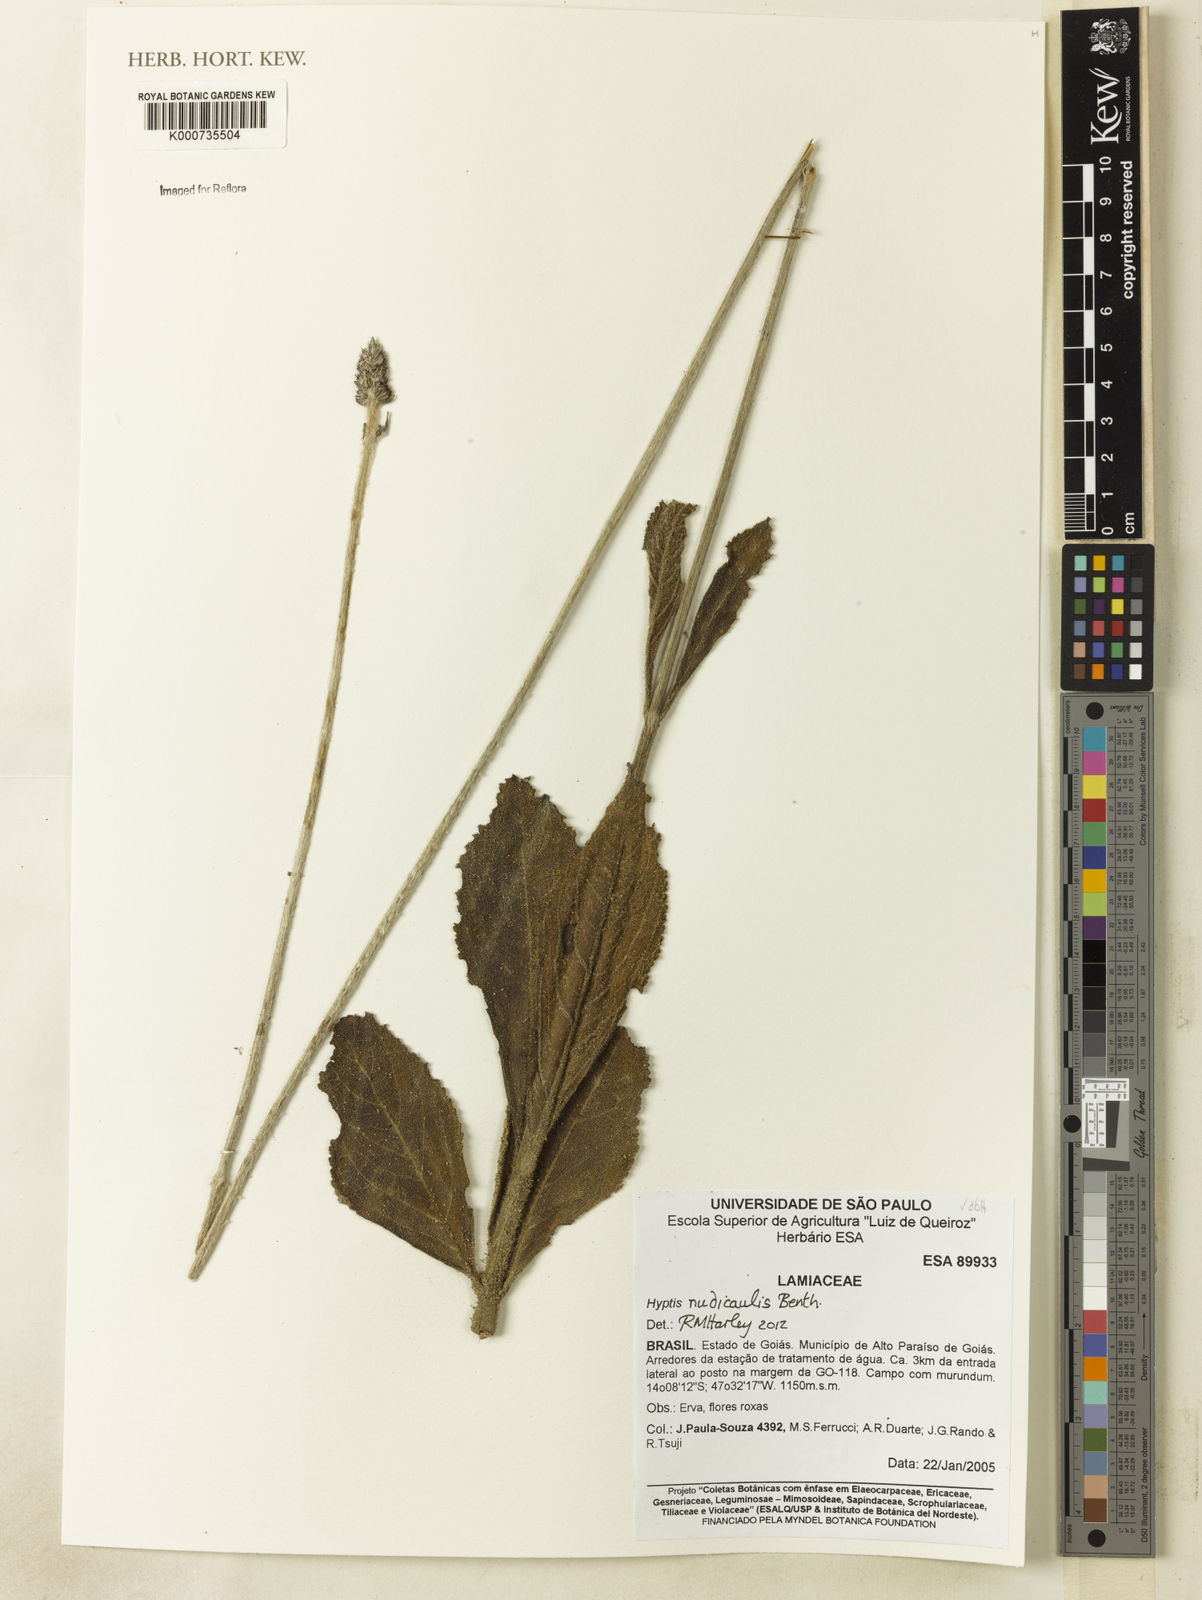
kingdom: Plantae
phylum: Tracheophyta
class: Magnoliopsida
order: Lamiales
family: Lamiaceae
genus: Hyptis
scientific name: Hyptis
